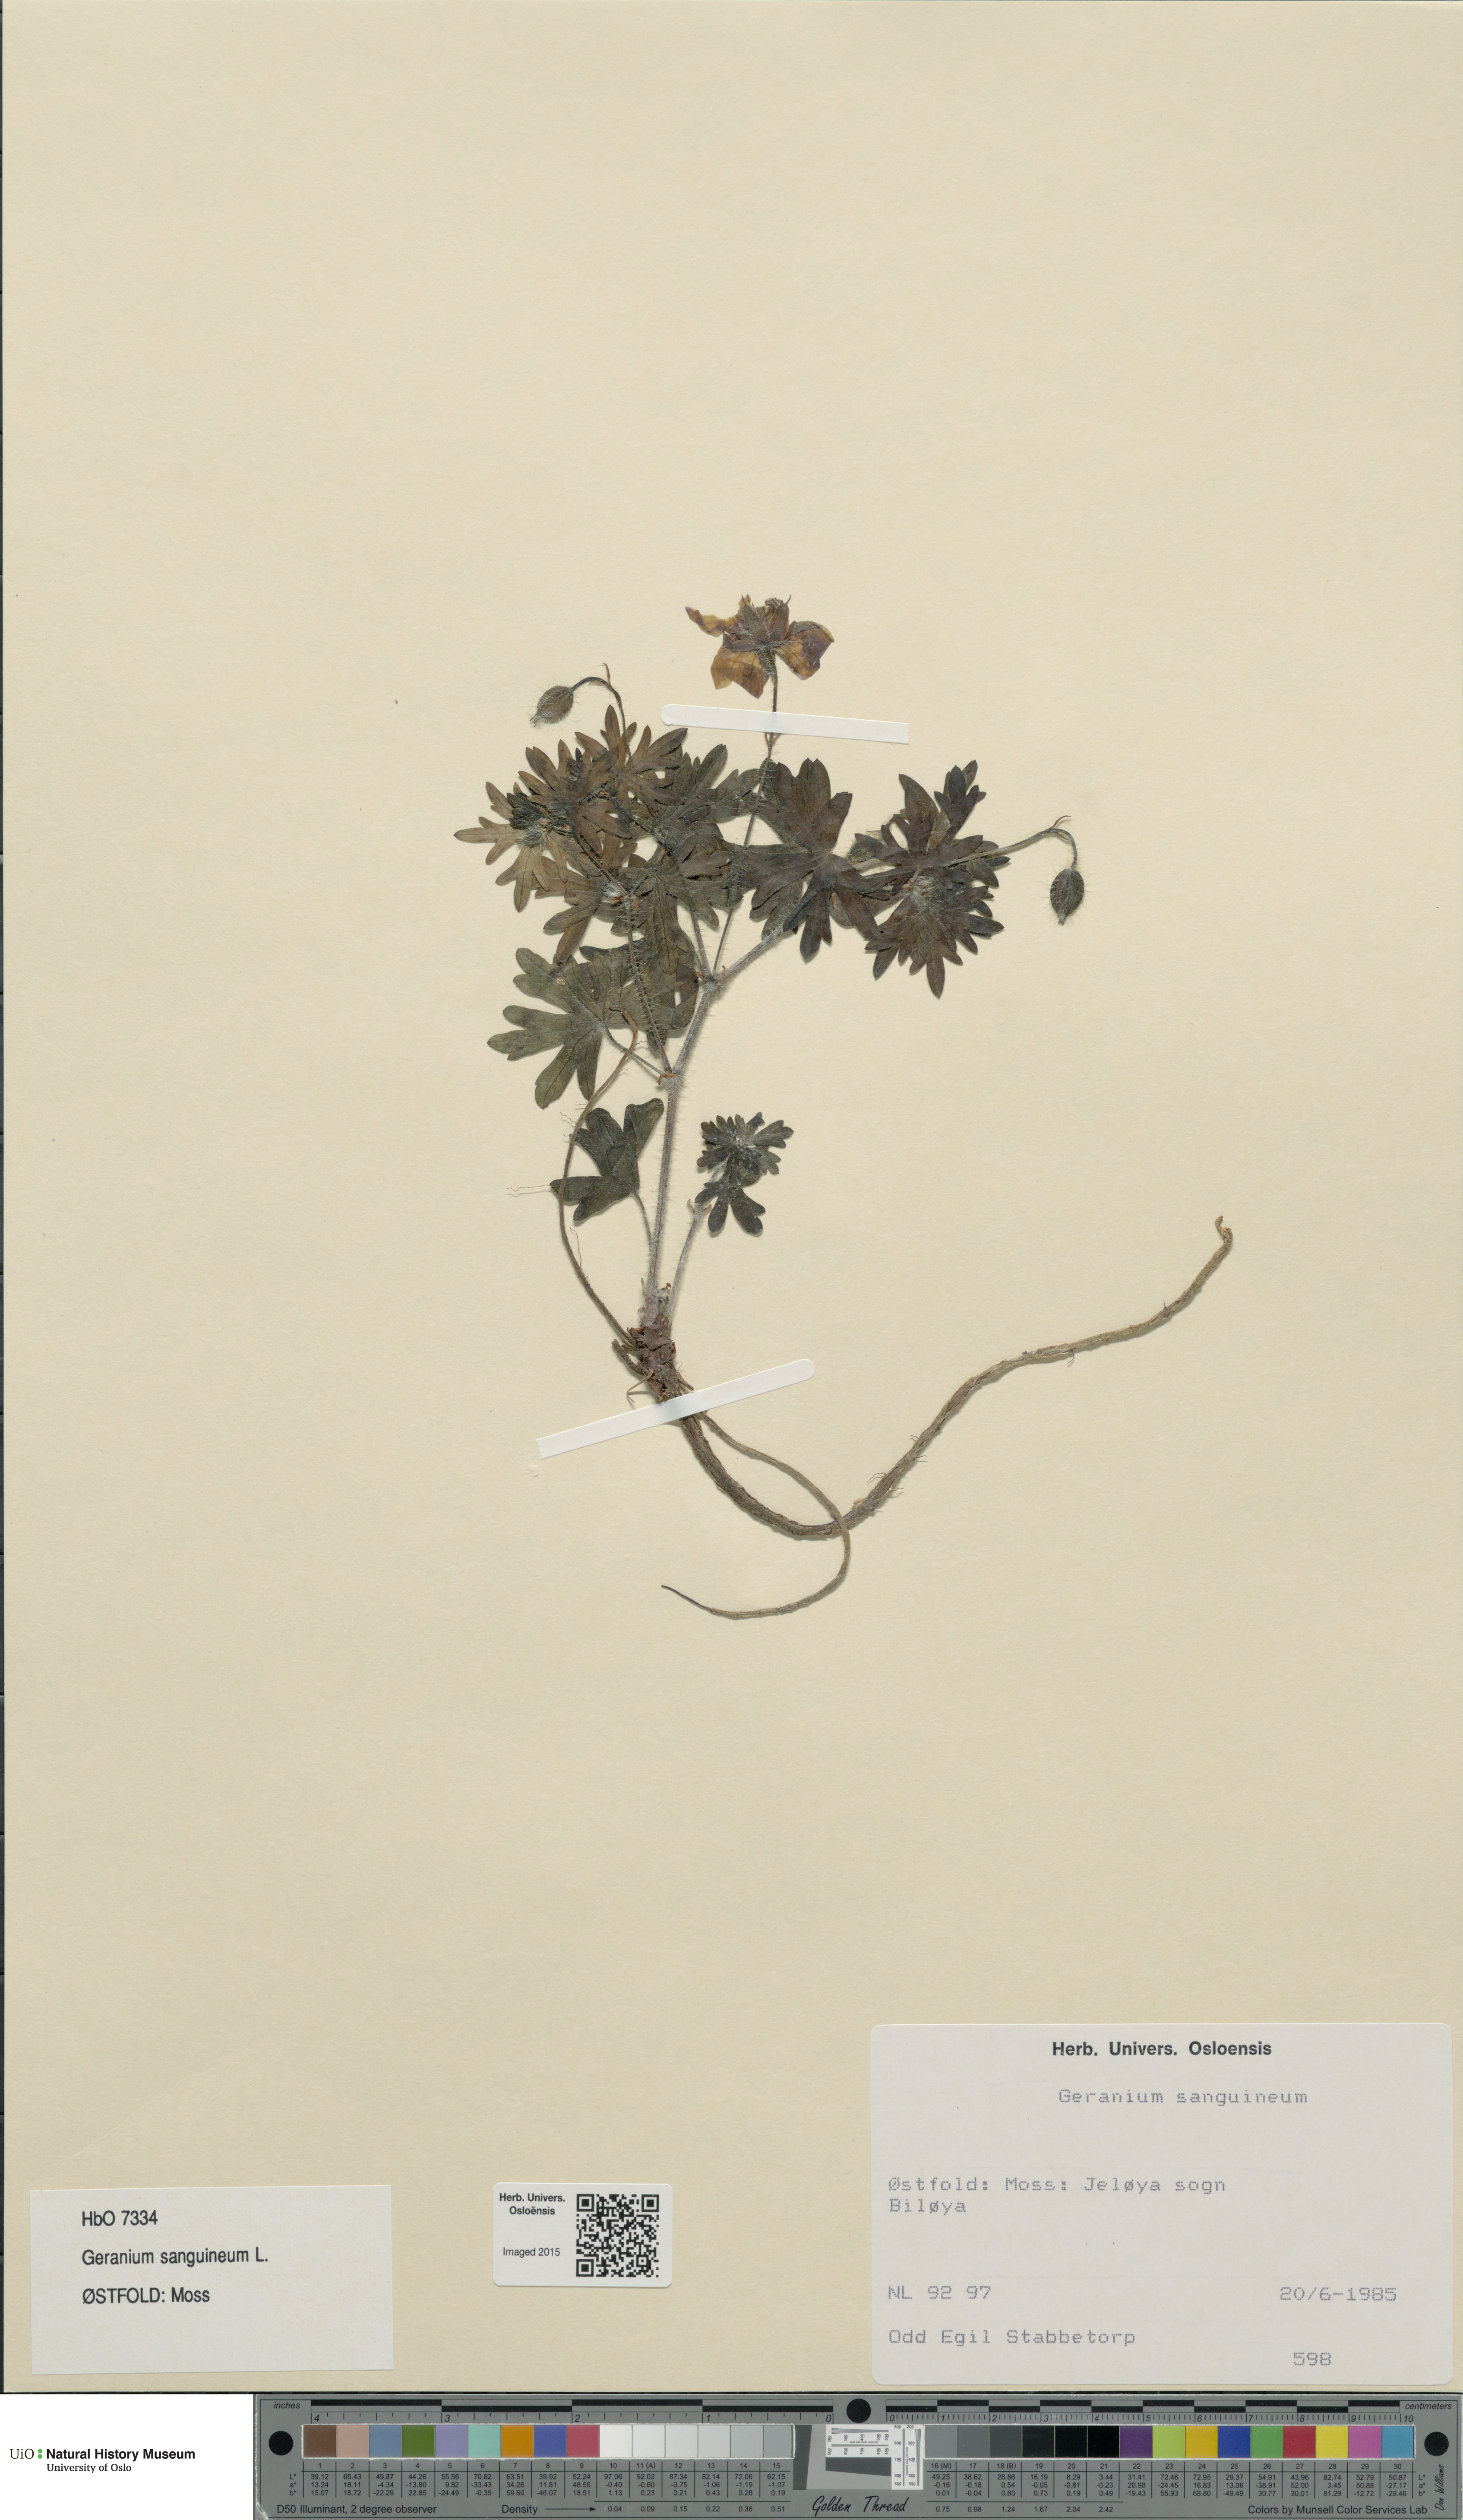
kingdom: Plantae
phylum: Tracheophyta
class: Magnoliopsida
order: Geraniales
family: Geraniaceae
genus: Geranium
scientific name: Geranium sanguineum
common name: Bloody crane's-bill
